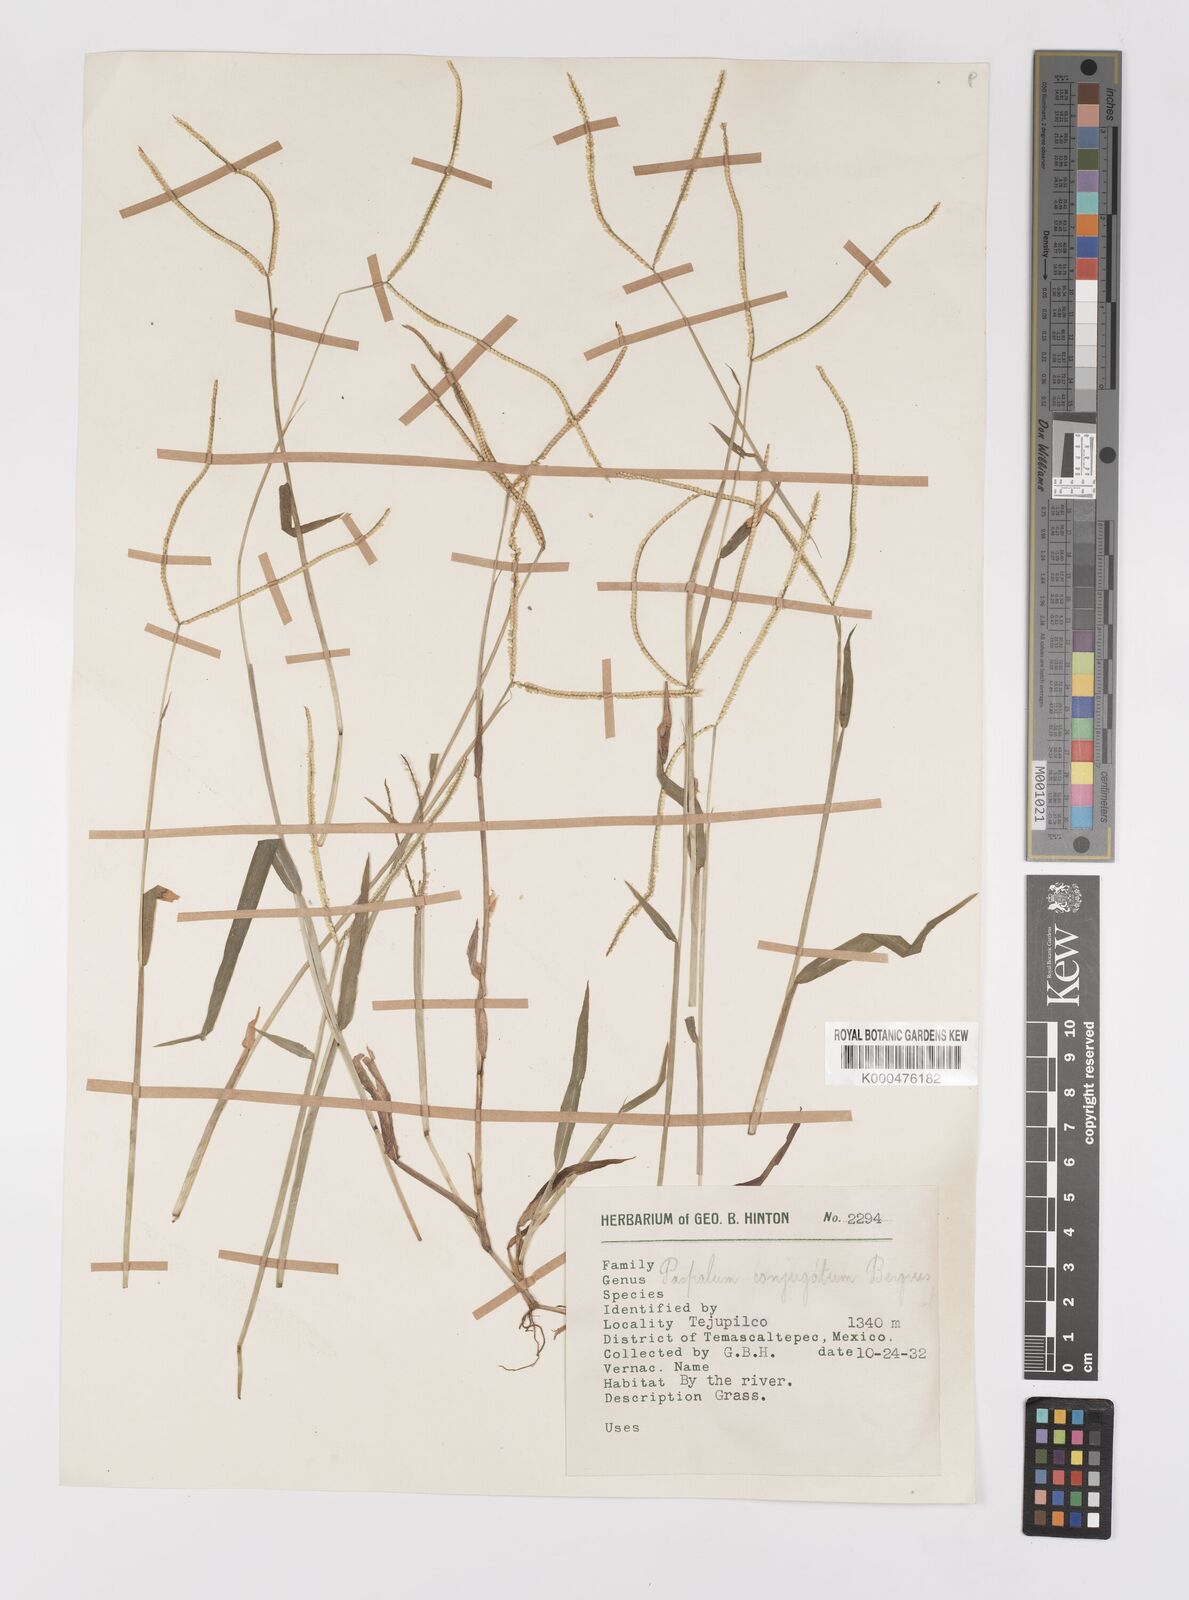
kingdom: Plantae
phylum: Tracheophyta
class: Liliopsida
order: Poales
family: Poaceae
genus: Paspalum
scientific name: Paspalum conjugatum
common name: Hilograss
